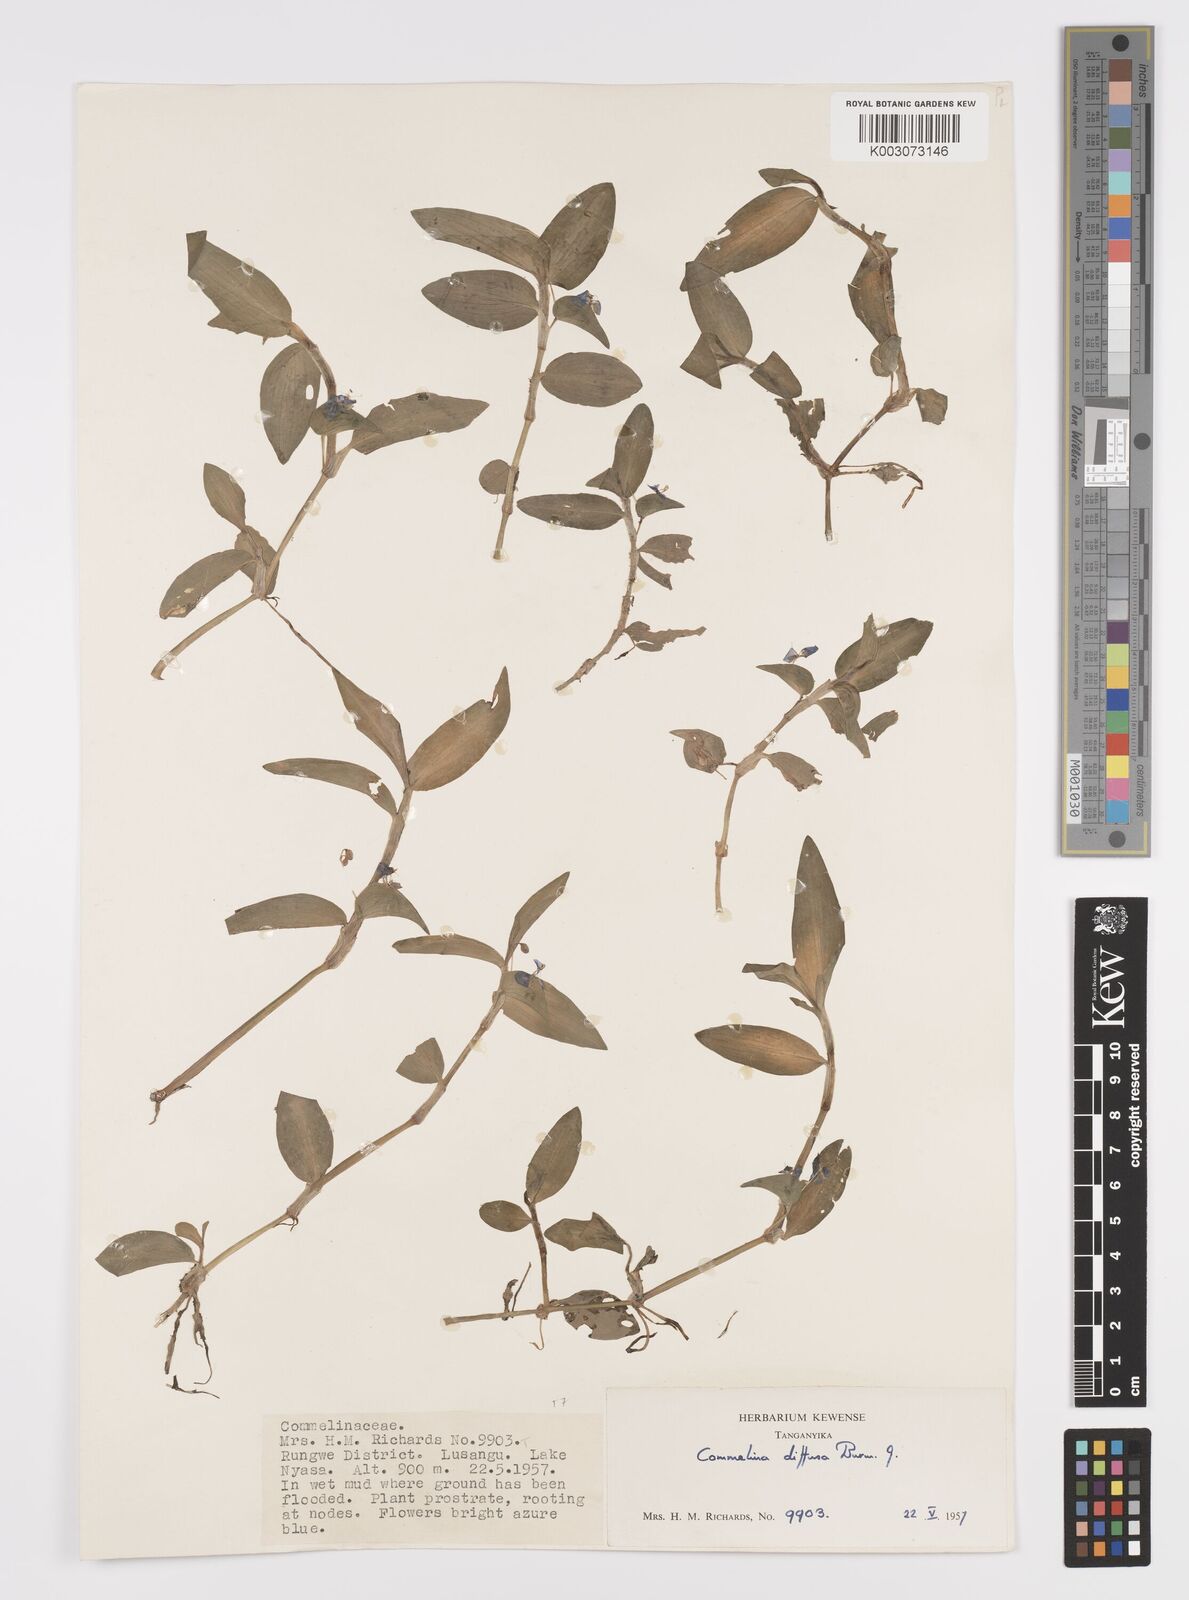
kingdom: Plantae
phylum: Tracheophyta
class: Liliopsida
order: Commelinales
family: Commelinaceae
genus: Commelina
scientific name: Commelina diffusa
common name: Climbing dayflower
